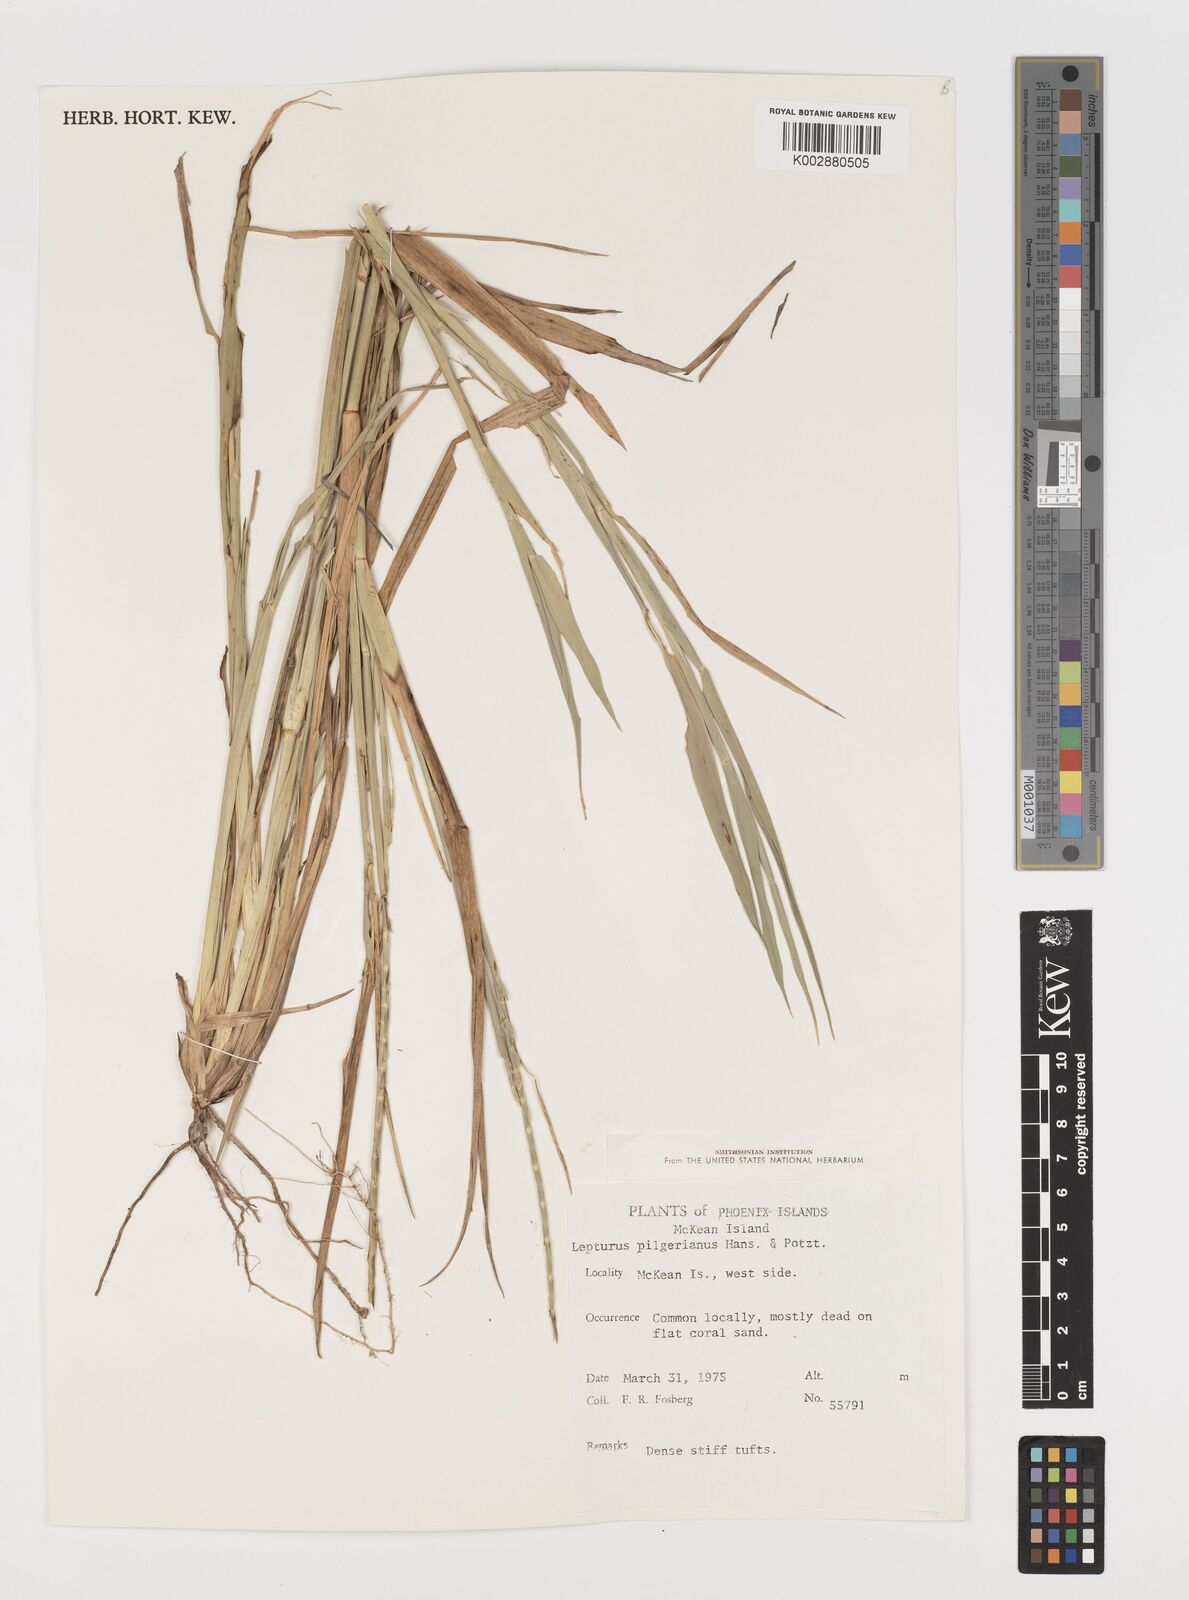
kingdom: Plantae
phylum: Tracheophyta
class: Liliopsida
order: Poales
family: Poaceae
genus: Lepturus
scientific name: Lepturus repens
